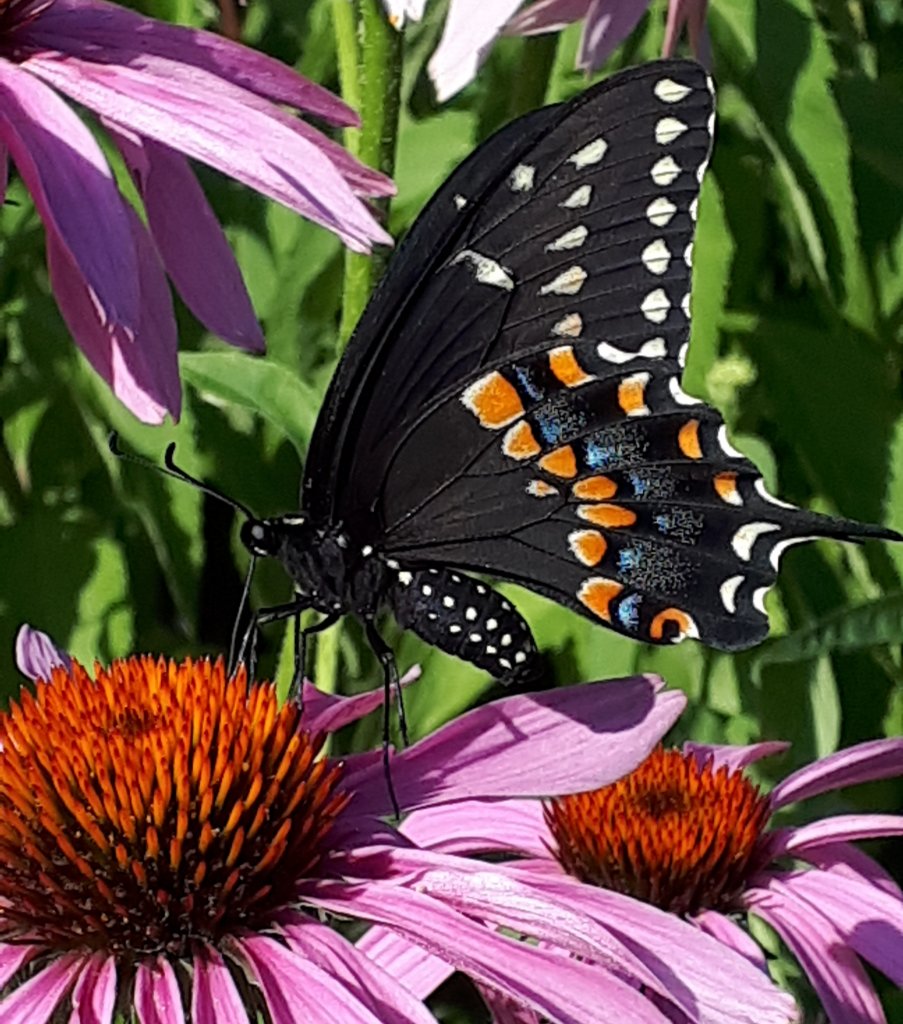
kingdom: Animalia
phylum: Arthropoda
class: Insecta
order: Lepidoptera
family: Papilionidae
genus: Papilio
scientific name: Papilio polyxenes
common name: Black Swallowtail
